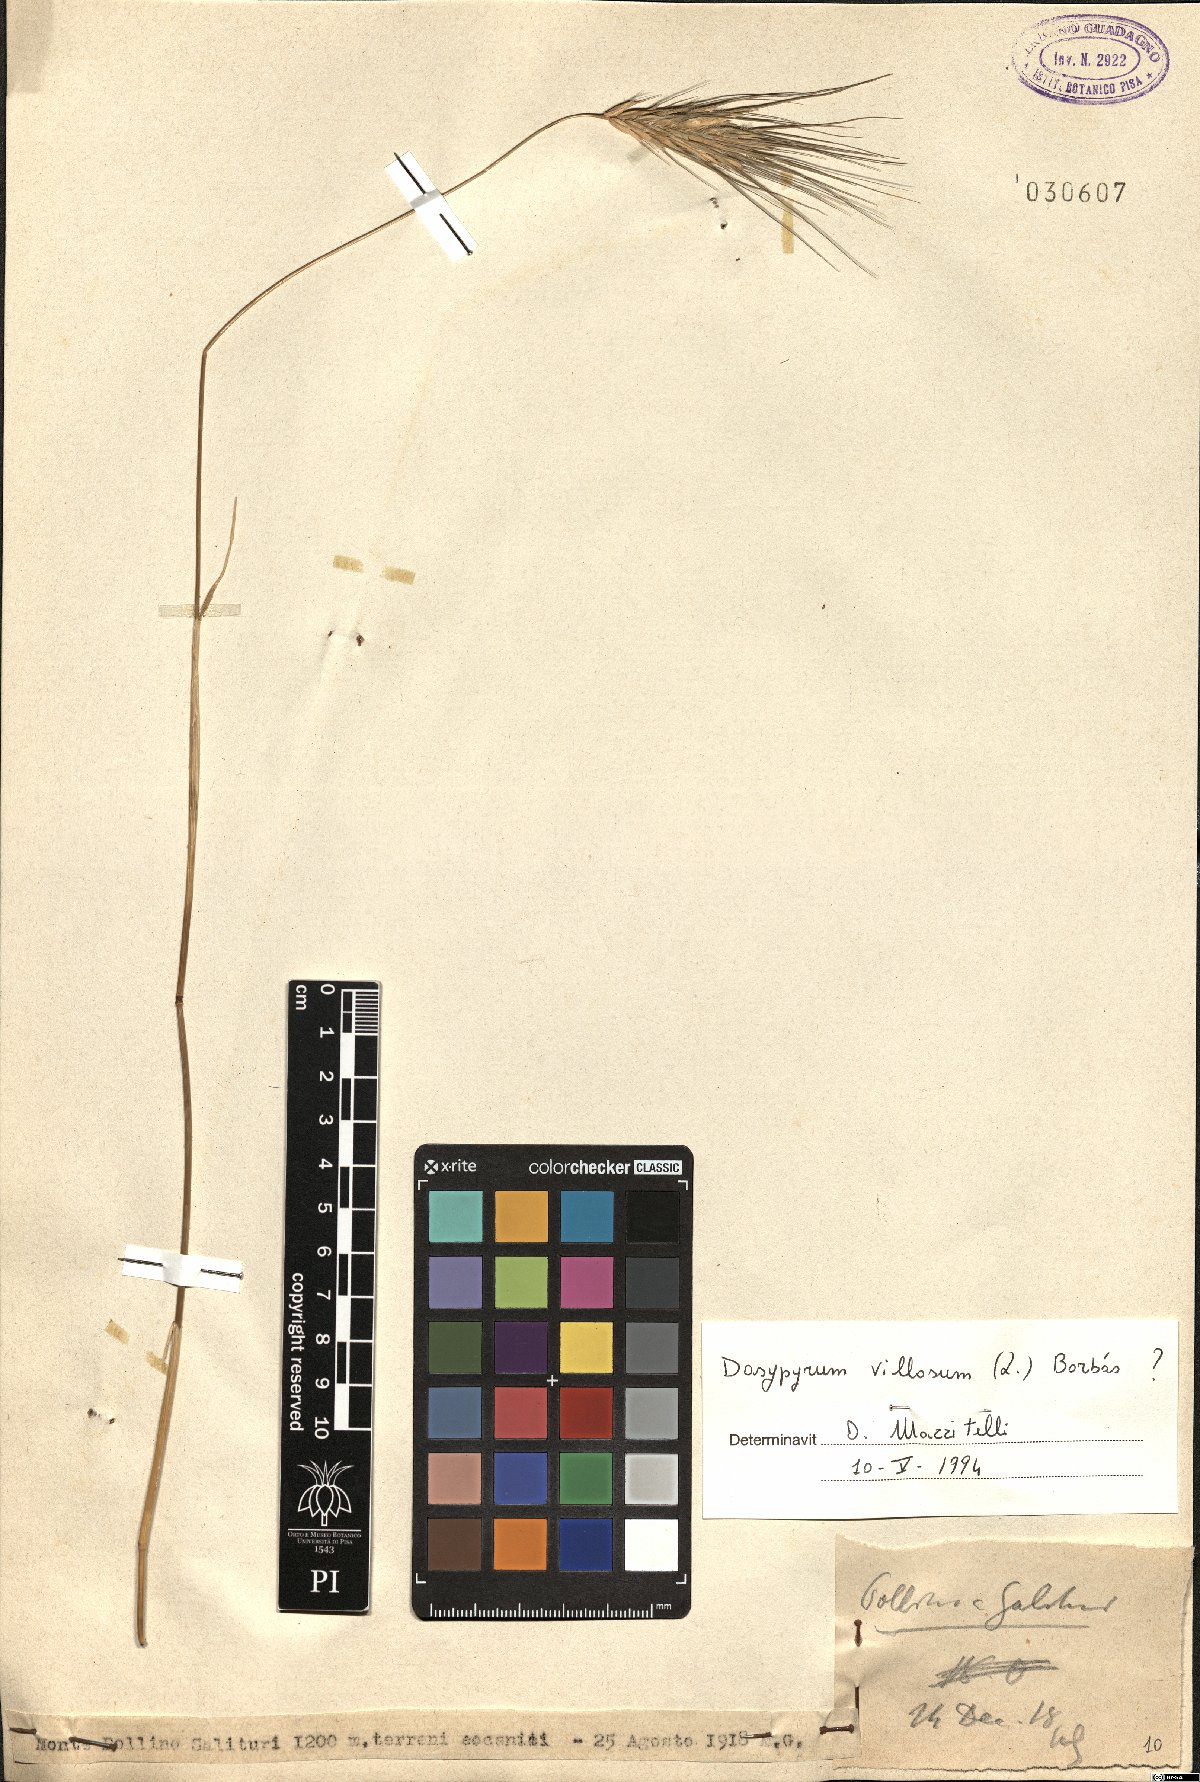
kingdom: Plantae
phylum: Tracheophyta
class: Liliopsida
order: Poales
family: Poaceae
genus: Dasypyrum
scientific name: Dasypyrum villosum
